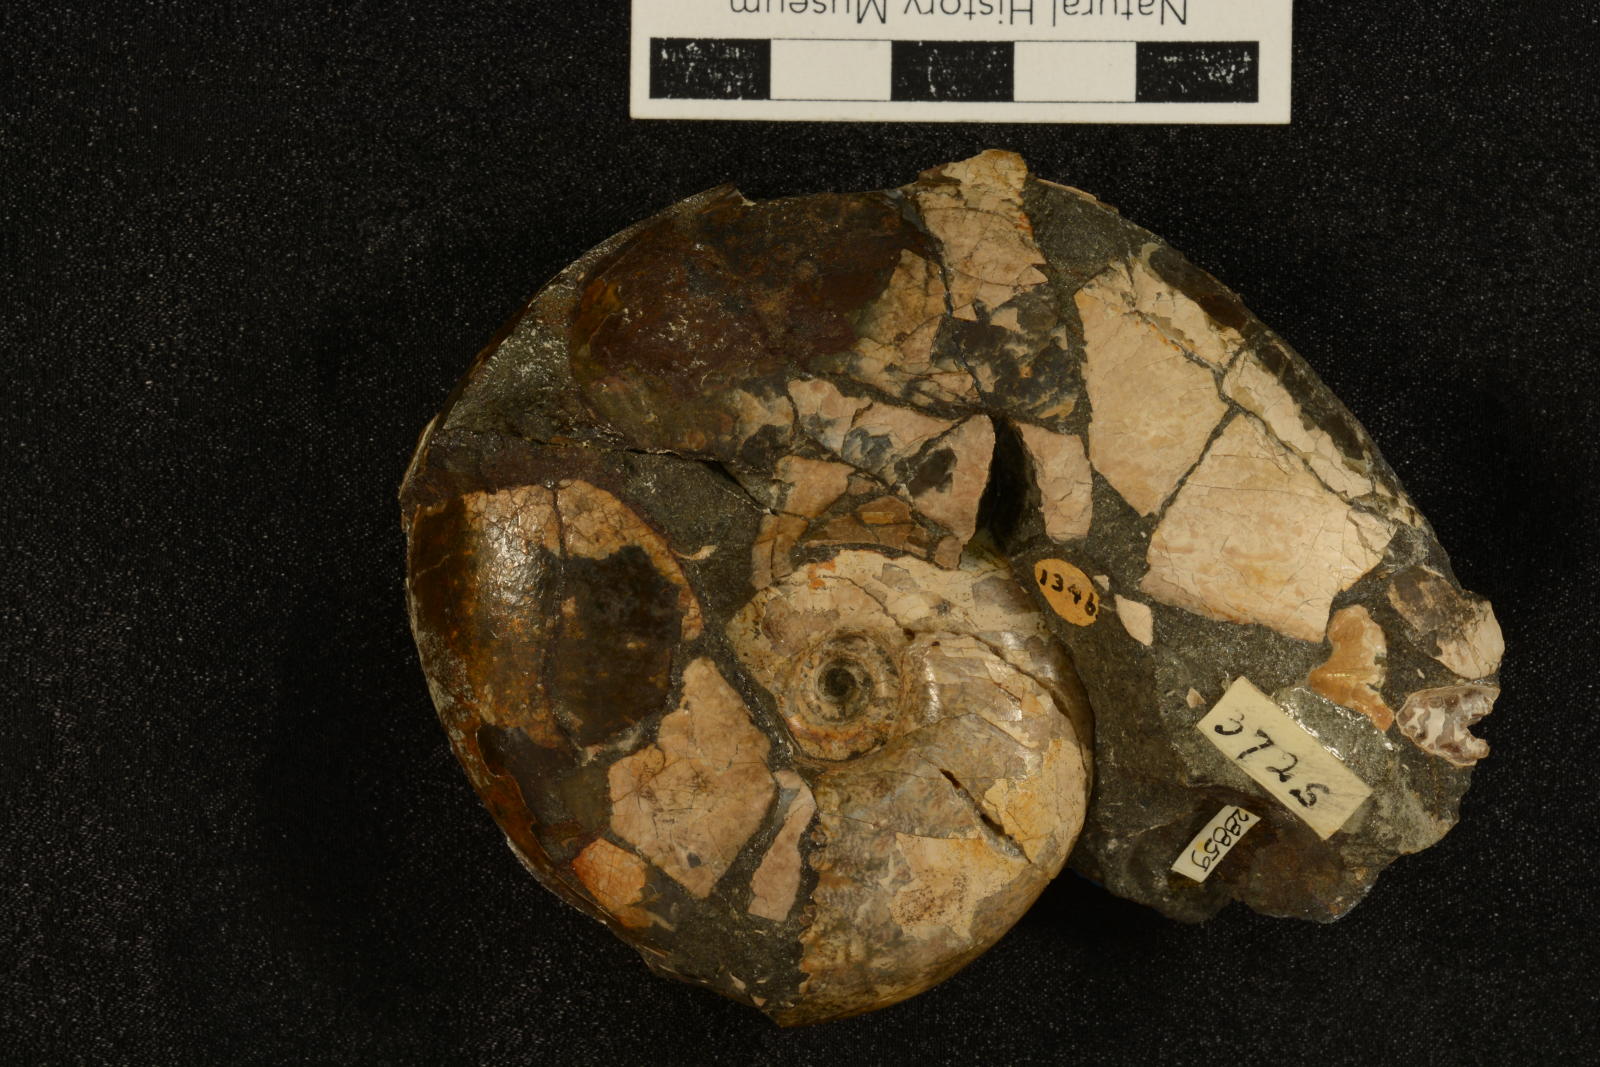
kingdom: Animalia
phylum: Mollusca
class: Cephalopoda
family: Lytoceratidae
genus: Lytoceras
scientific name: Lytoceras glabrus
